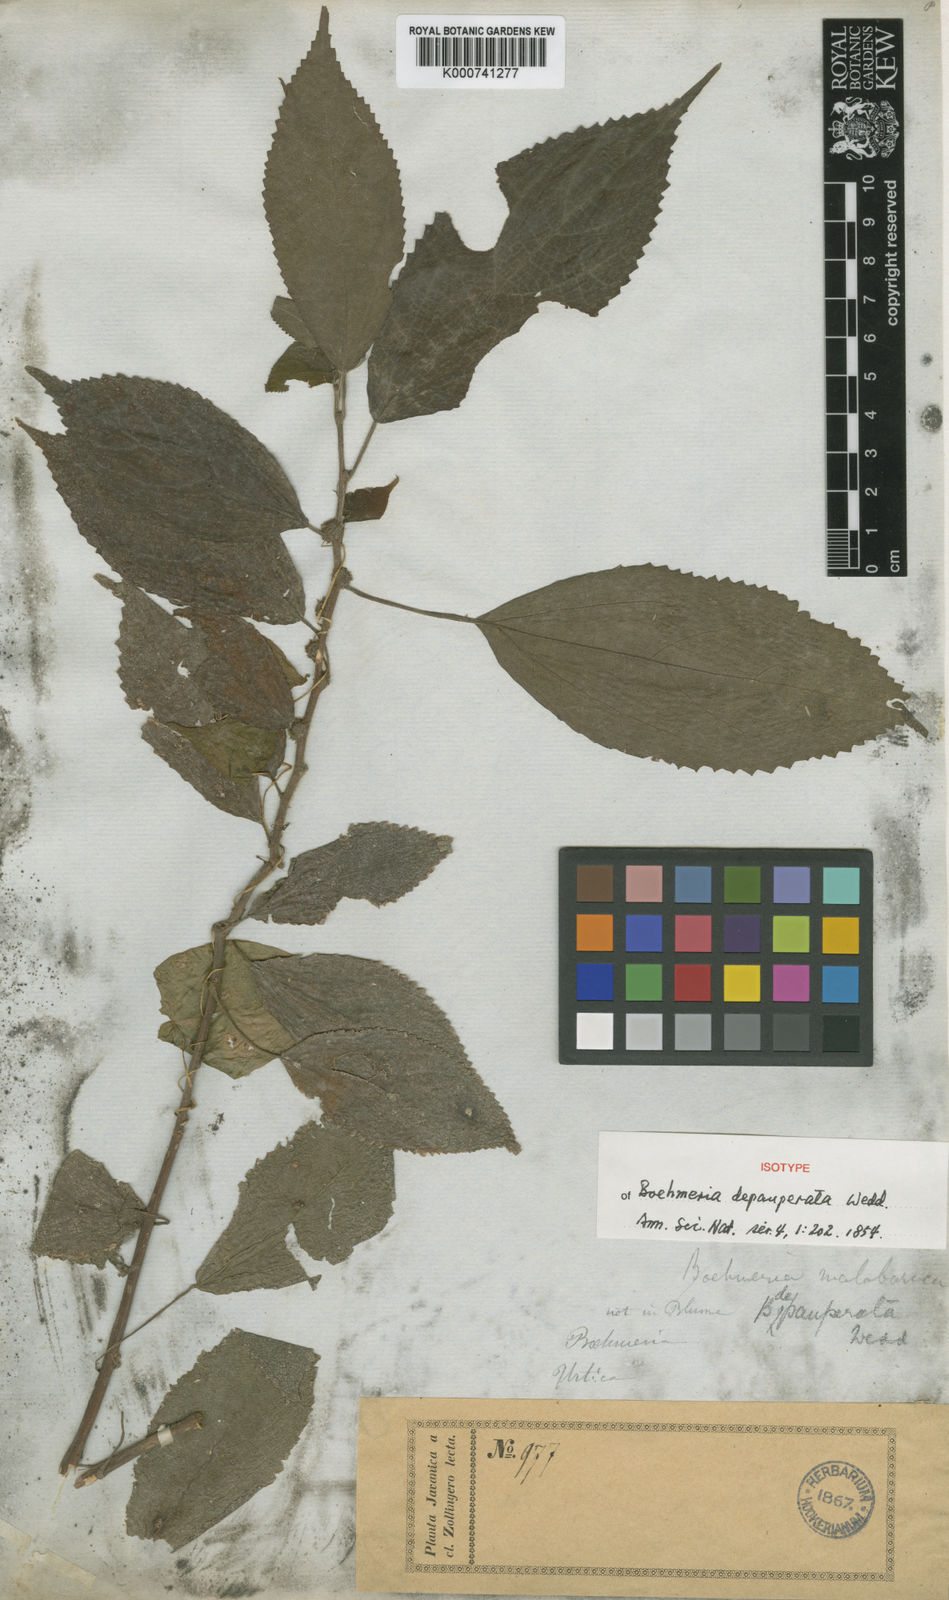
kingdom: Plantae
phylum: Tracheophyta
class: Magnoliopsida
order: Rosales
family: Urticaceae
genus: Boehmeria
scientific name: Boehmeria depauperata
